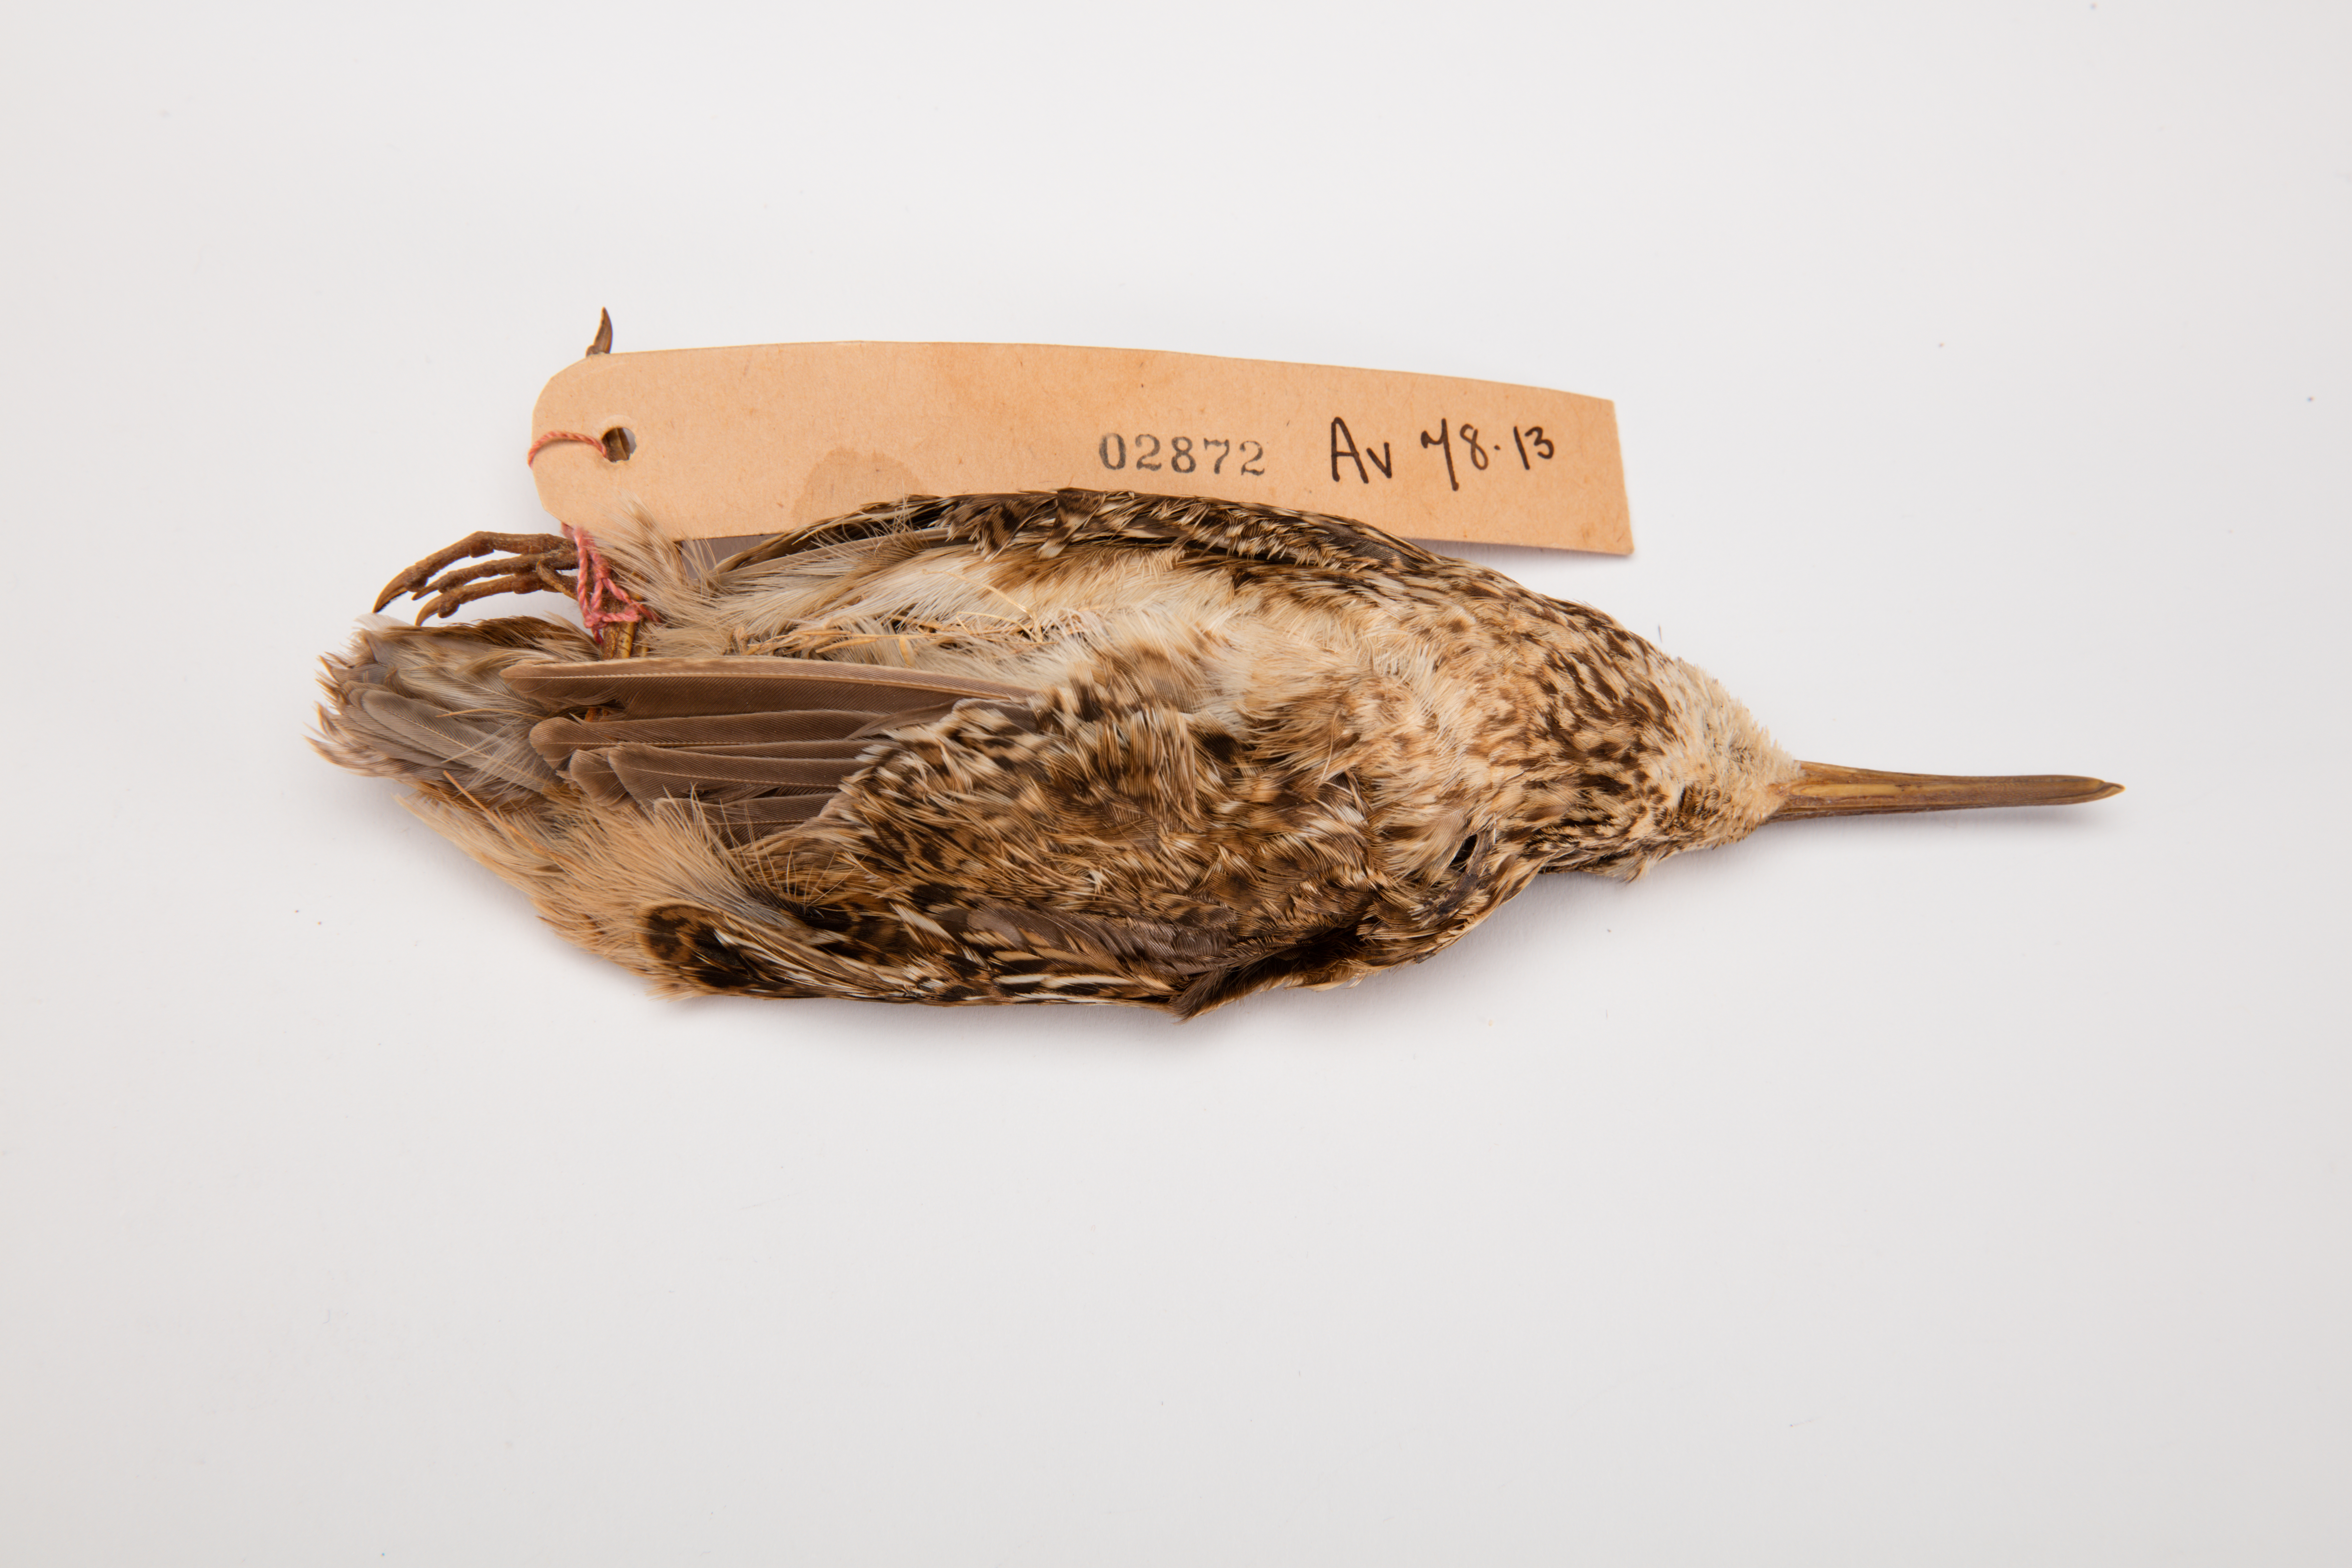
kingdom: Animalia
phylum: Chordata
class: Aves
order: Charadriiformes
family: Scolopacidae
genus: Coenocorypha
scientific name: Coenocorypha pusilla
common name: Chatham snipe
